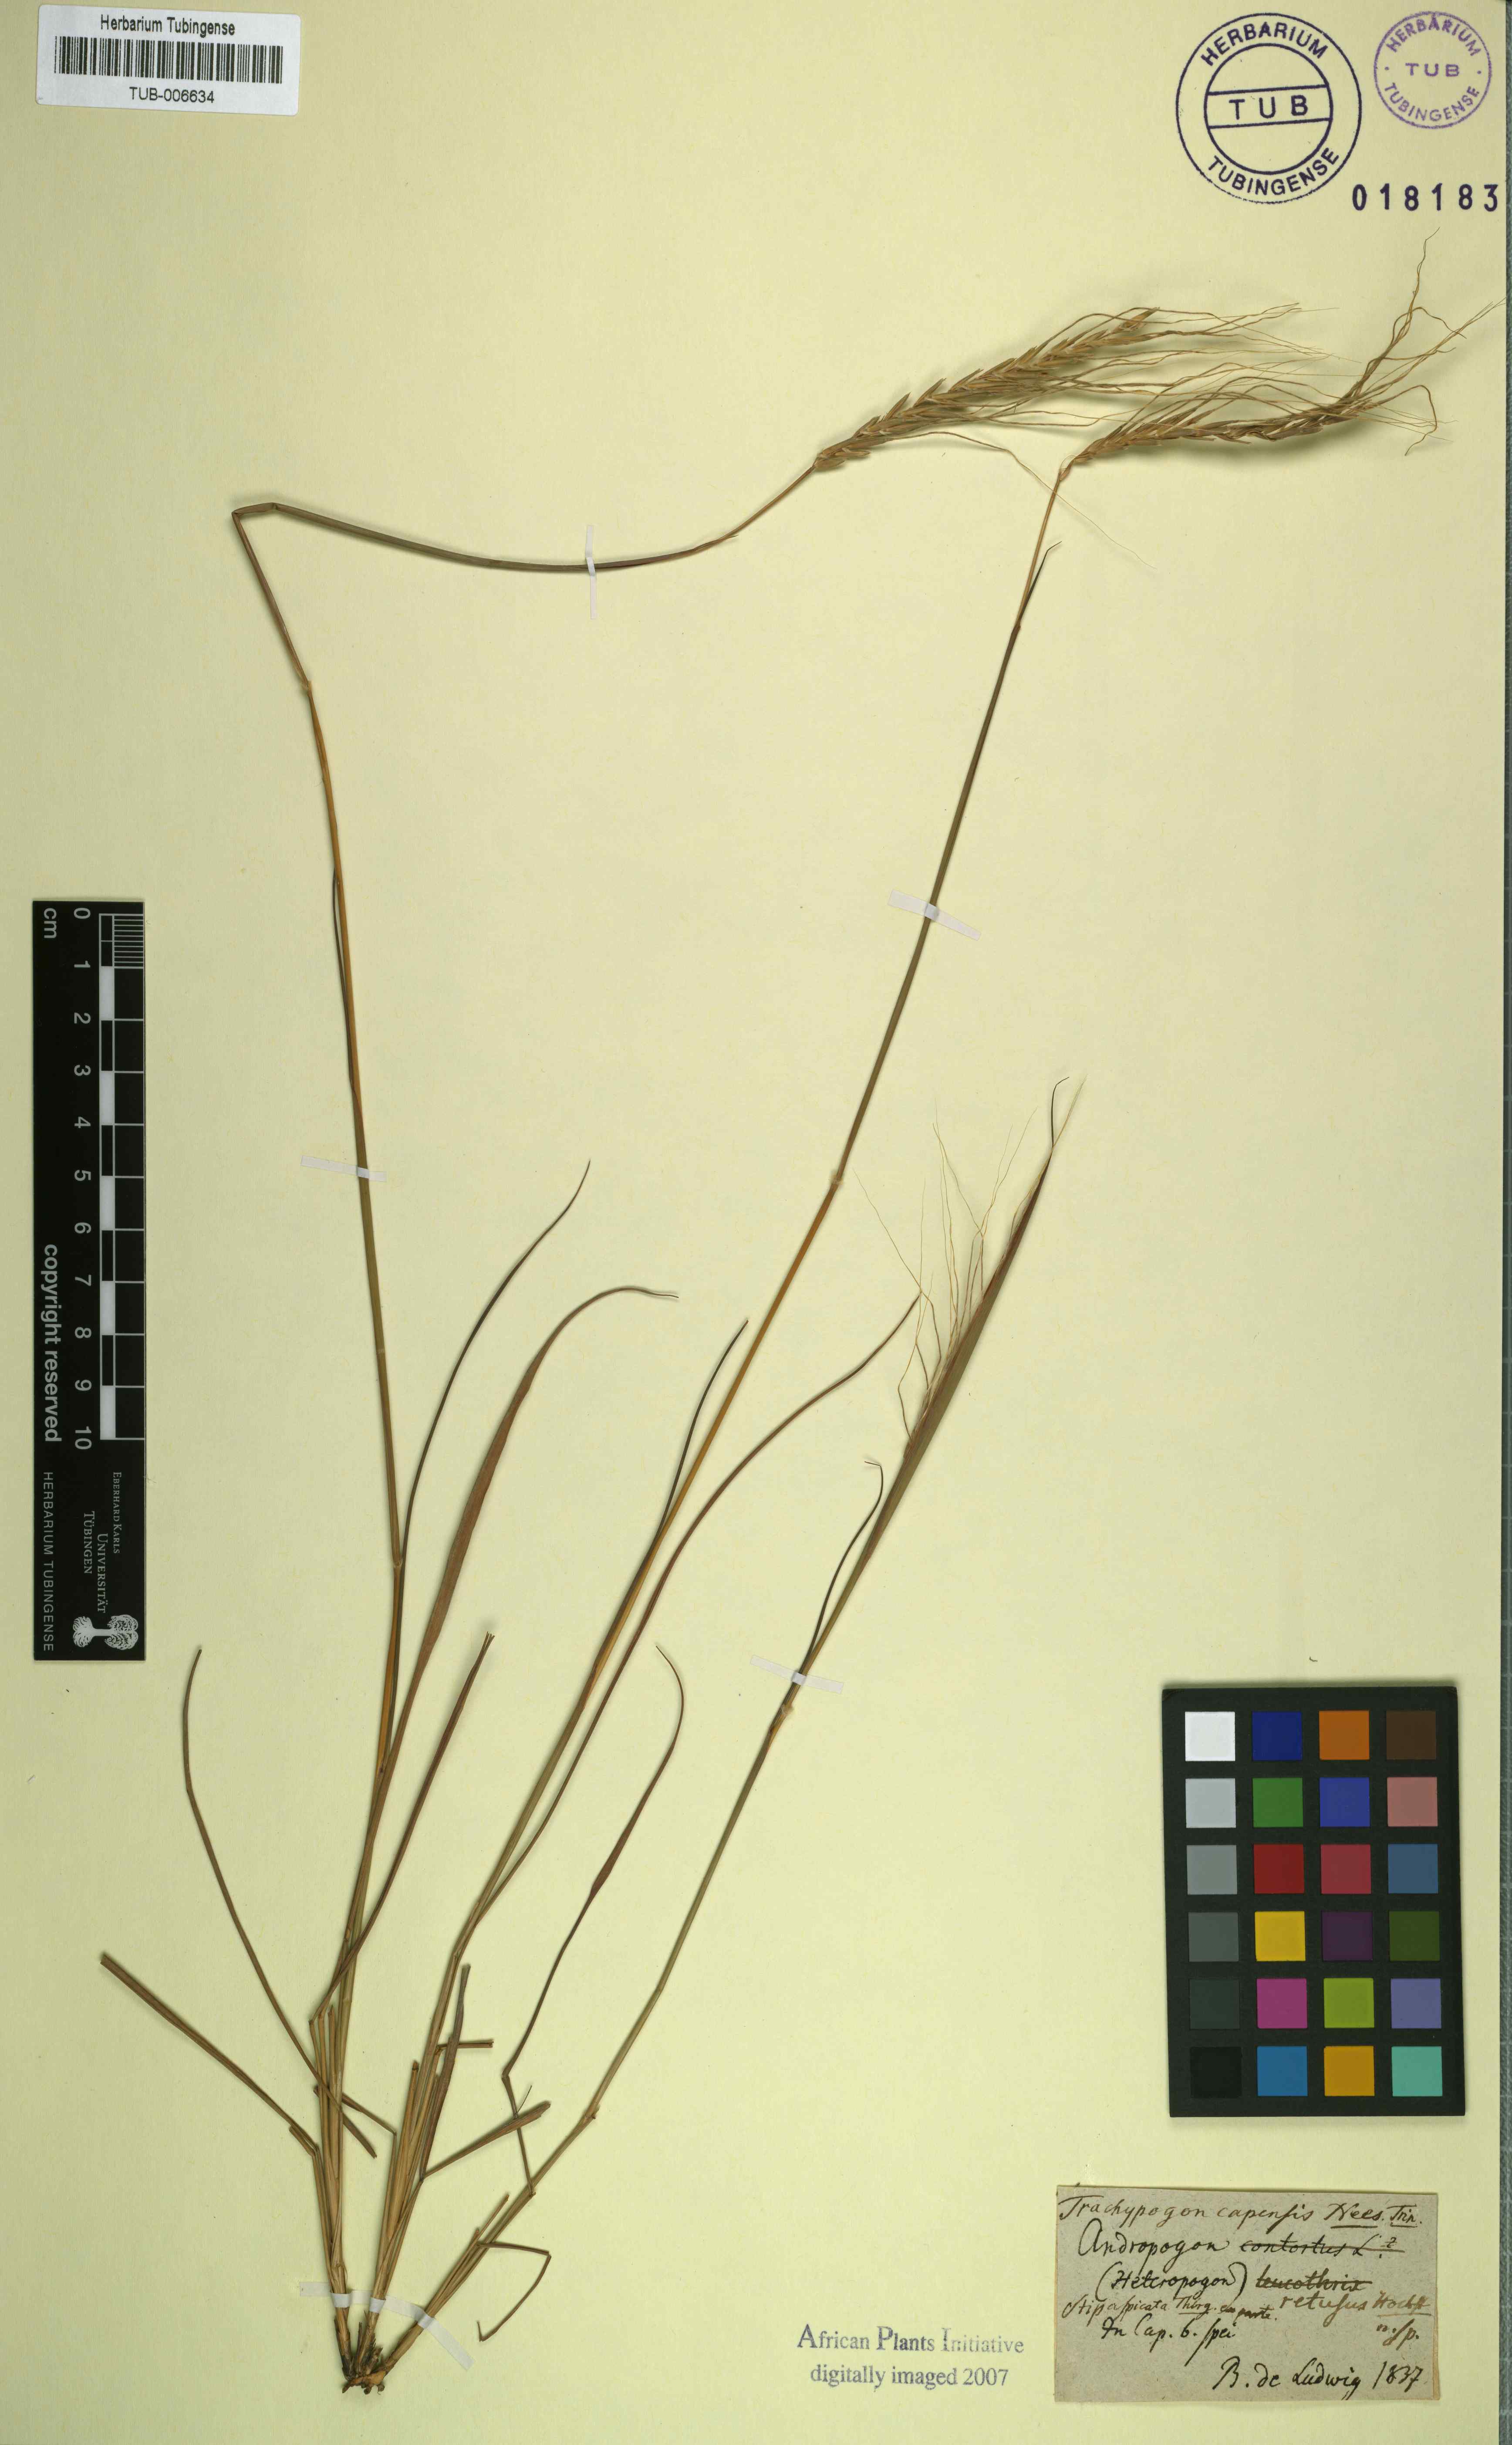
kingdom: Plantae
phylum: Tracheophyta
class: Liliopsida
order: Poales
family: Poaceae
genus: Trachypogon
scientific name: Trachypogon spicatus
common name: Crinkle-awn
